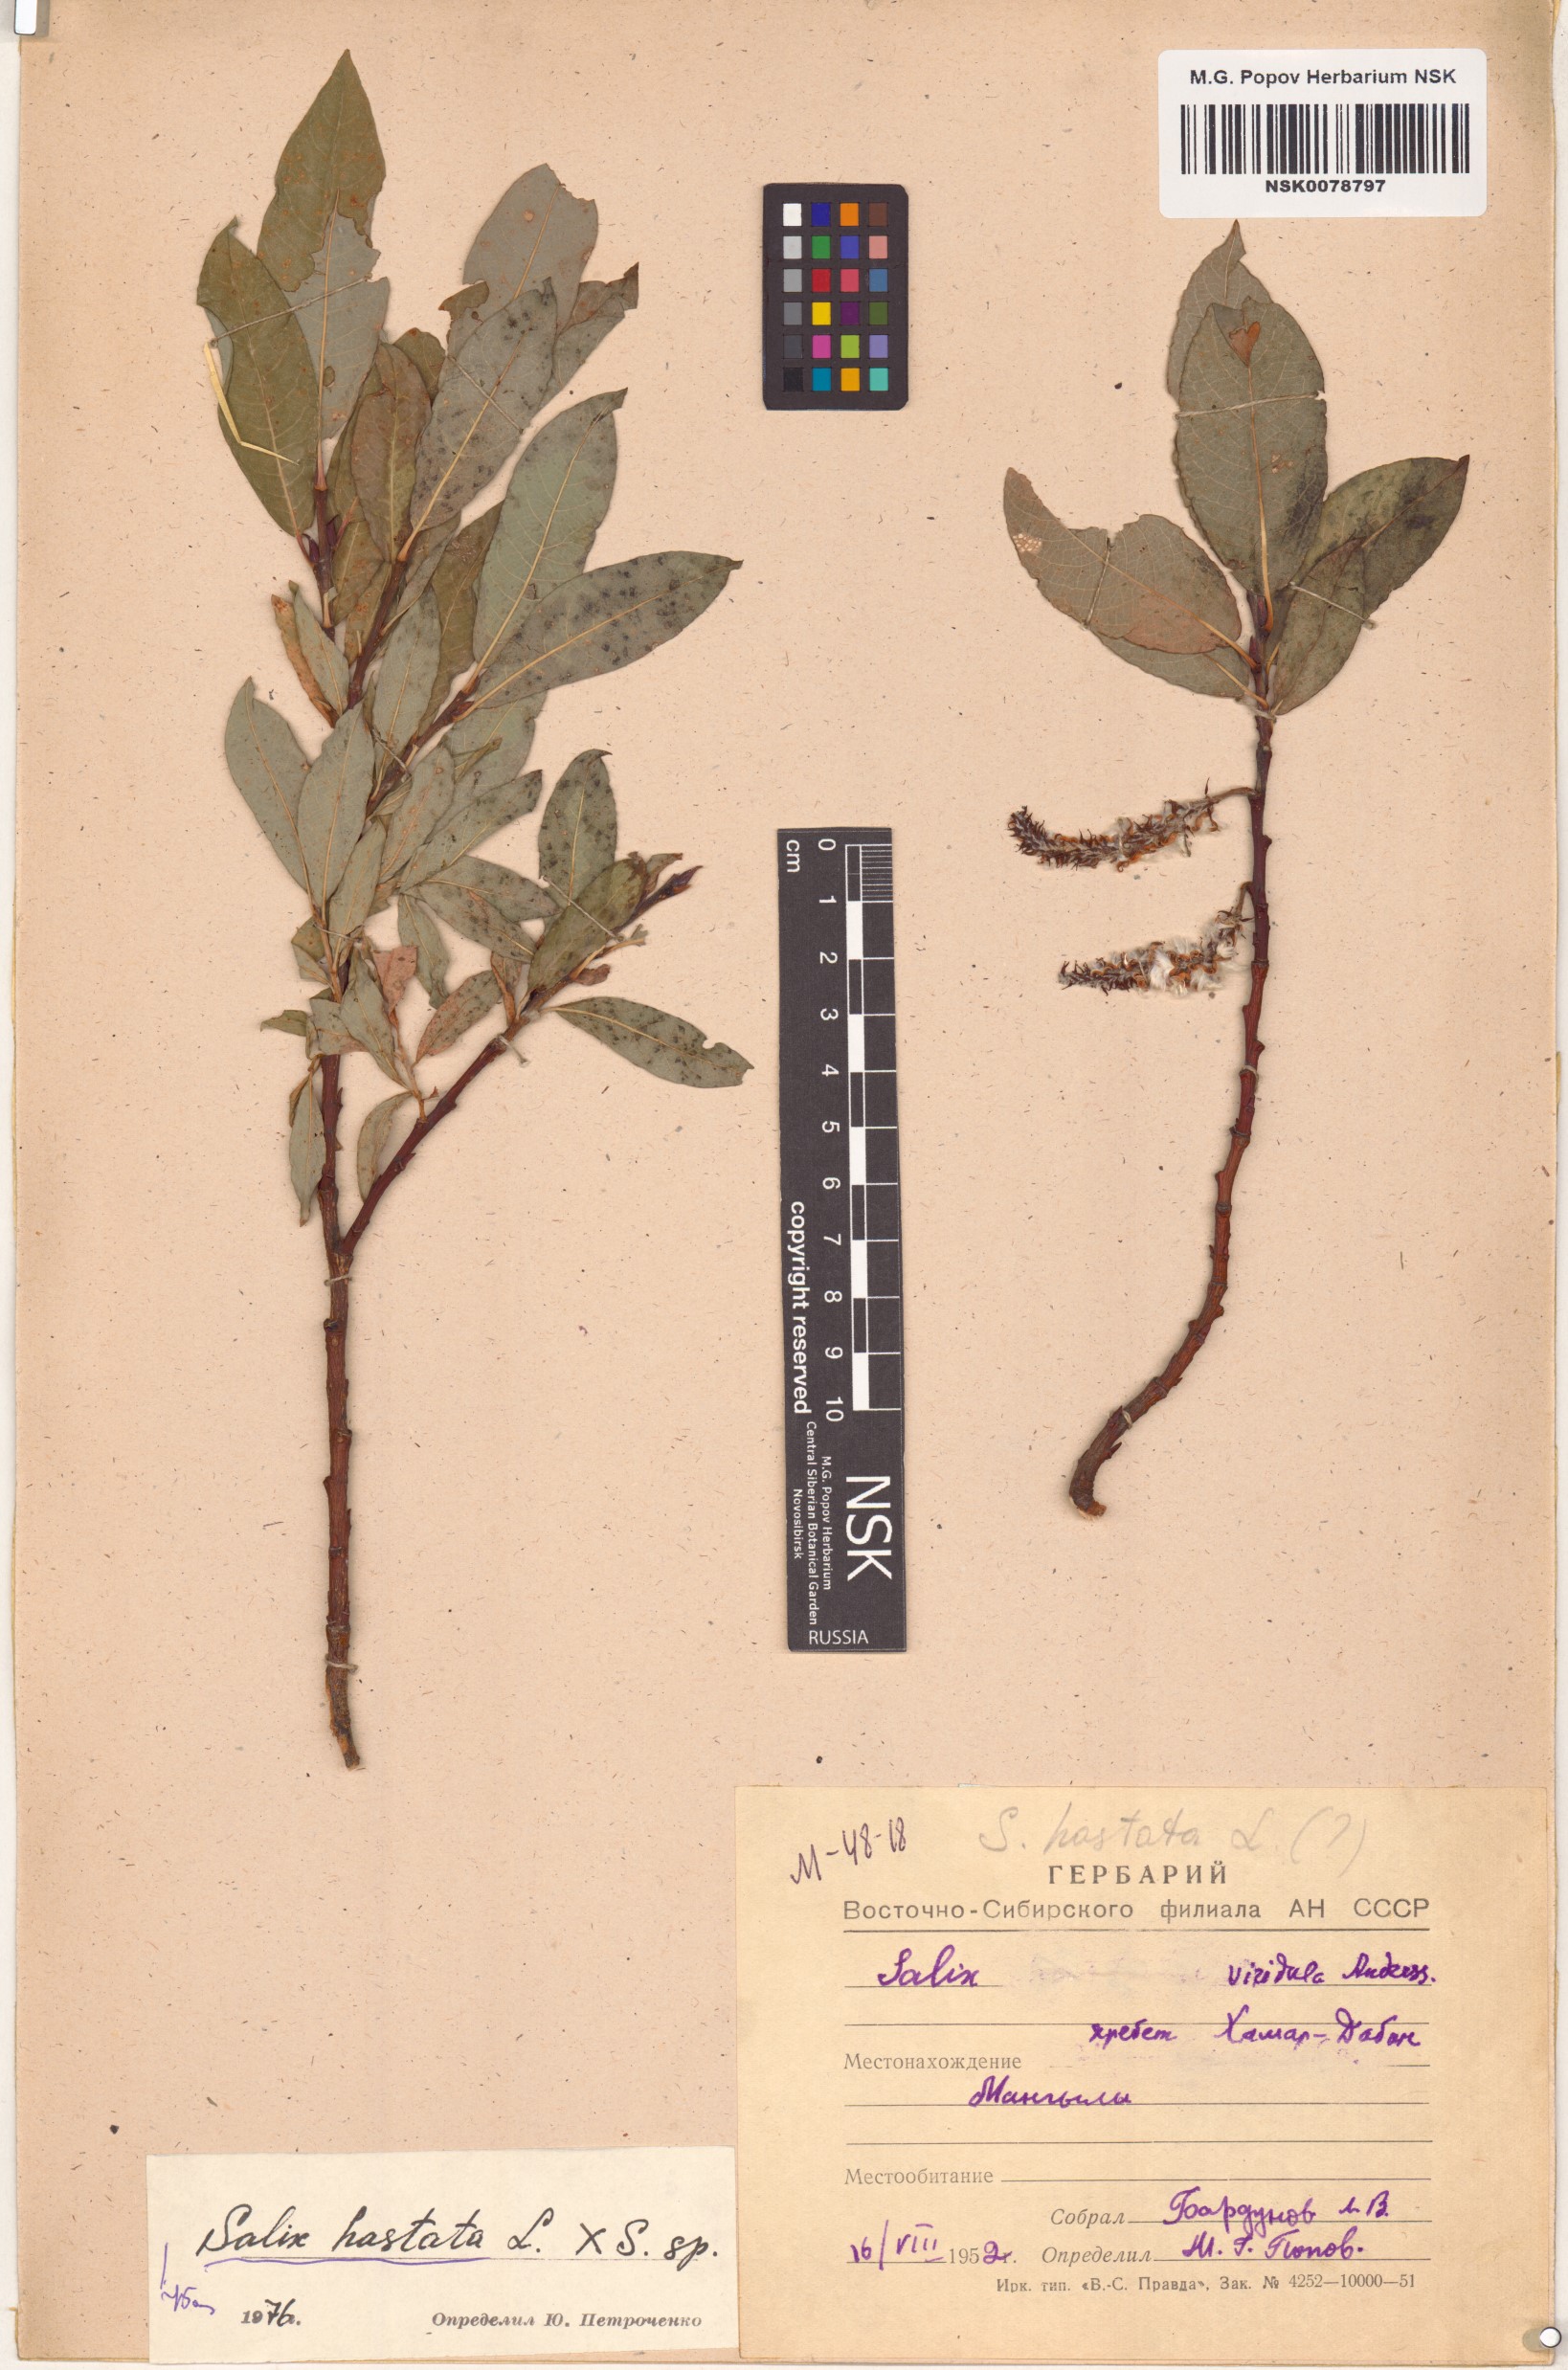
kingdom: Plantae
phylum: Tracheophyta
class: Magnoliopsida
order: Malpighiales
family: Salicaceae
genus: Salix
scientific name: Salix hastata
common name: Halberd willow
